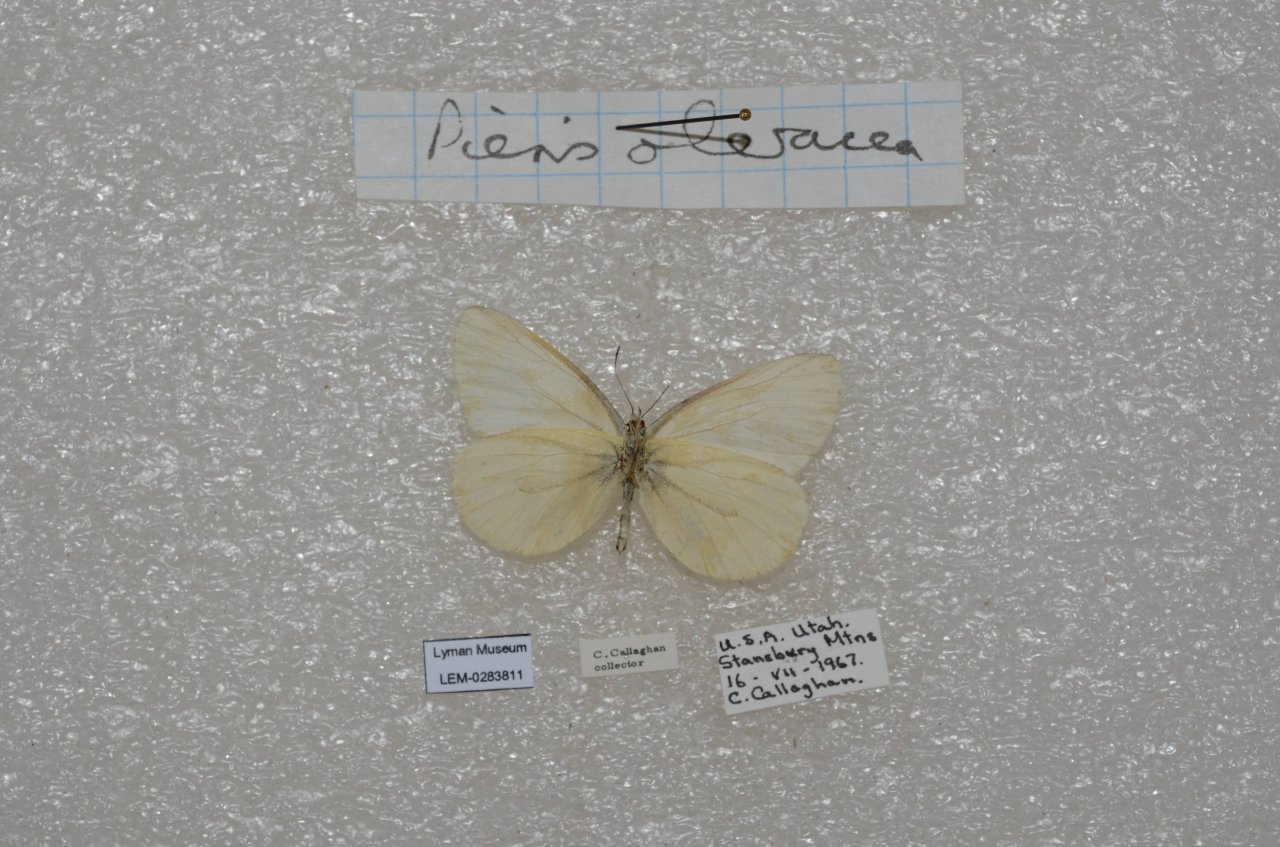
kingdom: Animalia
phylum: Arthropoda
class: Insecta
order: Lepidoptera
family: Pieridae
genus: Pieris
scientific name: Pieris
